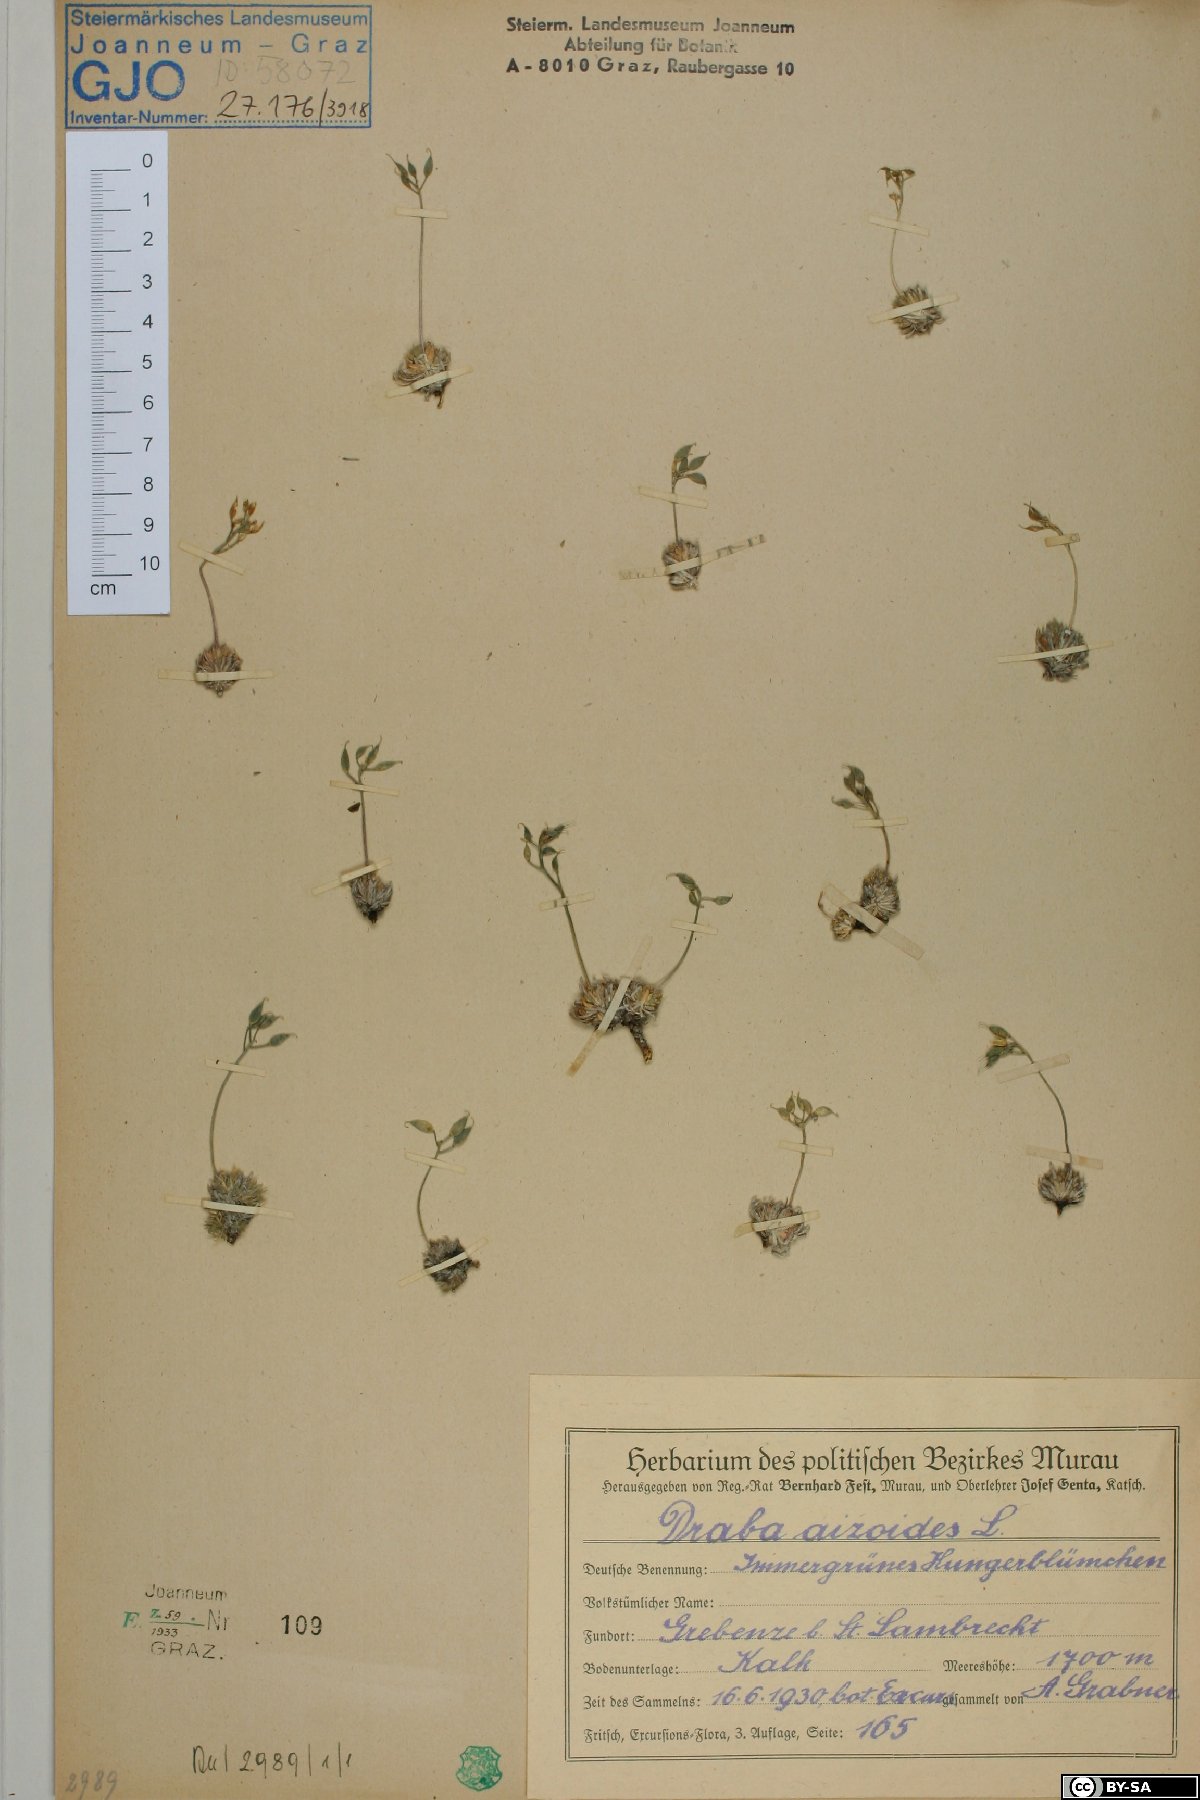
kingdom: Plantae
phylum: Tracheophyta
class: Magnoliopsida
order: Brassicales
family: Brassicaceae
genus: Draba
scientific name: Draba aizoides
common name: Yellow whitlowgrass
